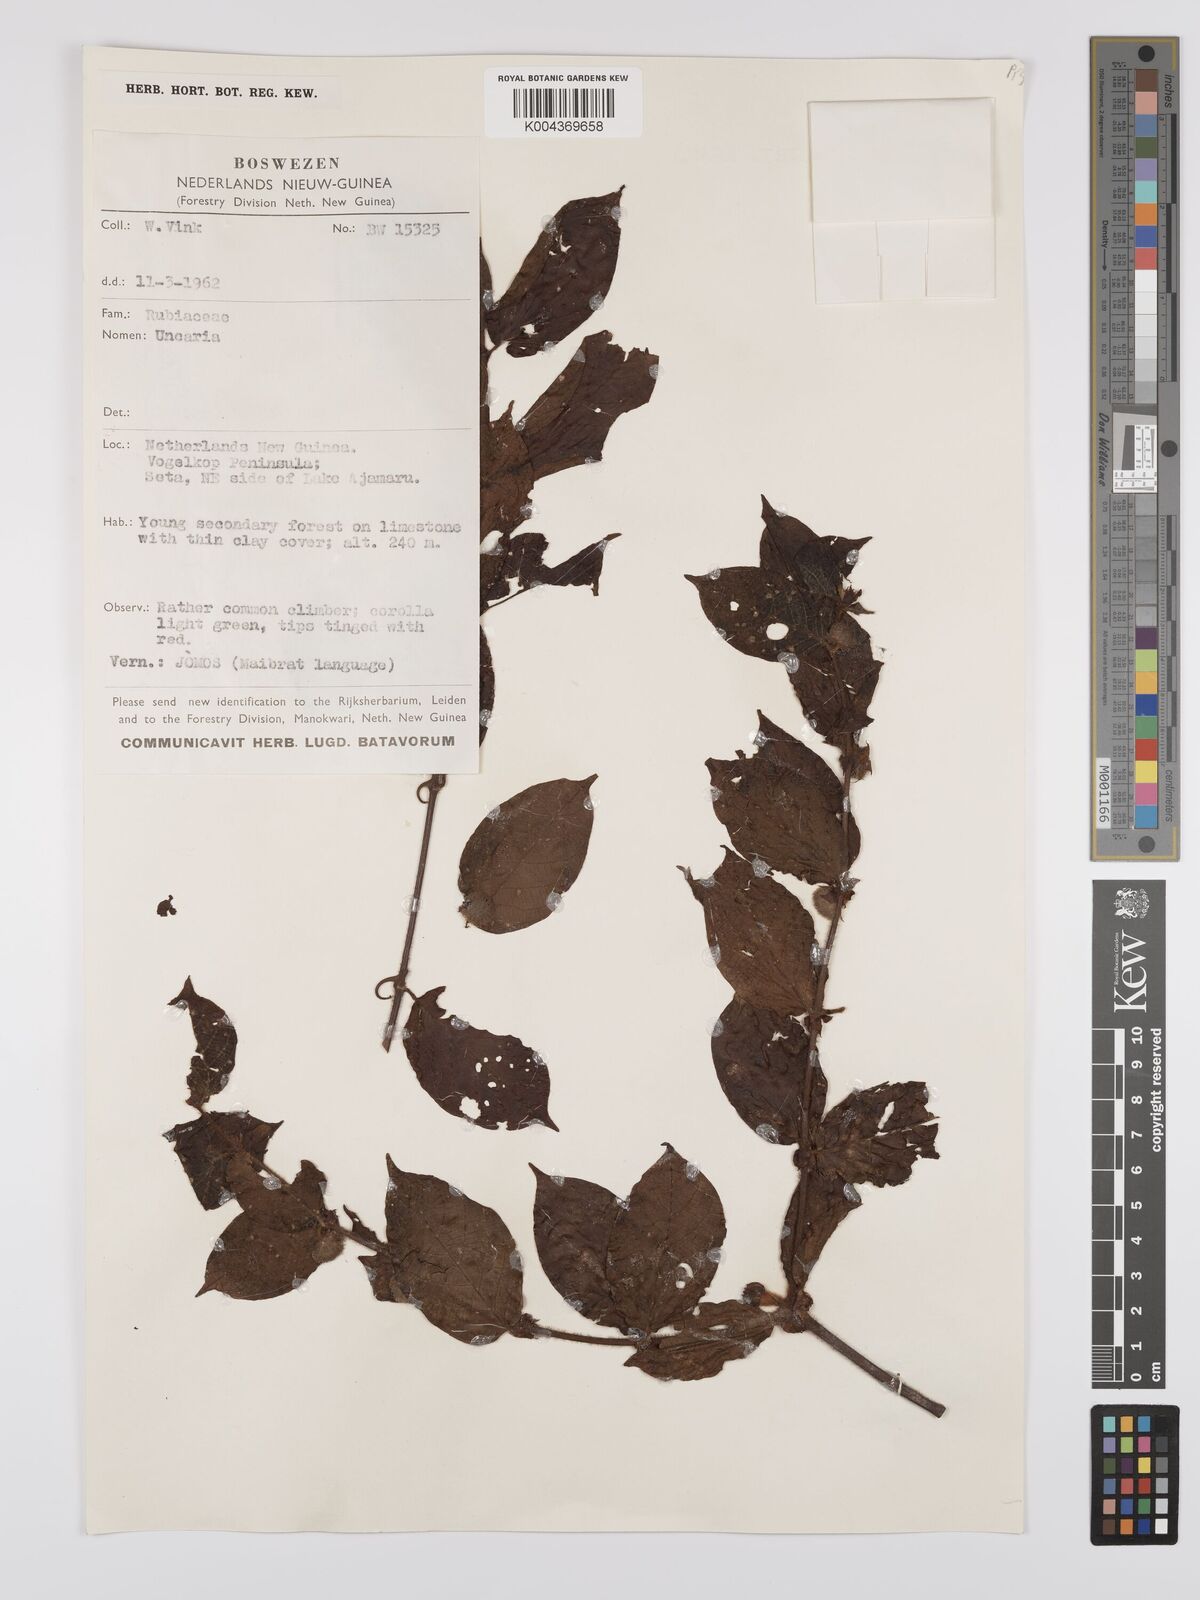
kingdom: Plantae
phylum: Tracheophyta
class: Magnoliopsida
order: Gentianales
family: Rubiaceae
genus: Uncaria
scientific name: Uncaria lanosa
